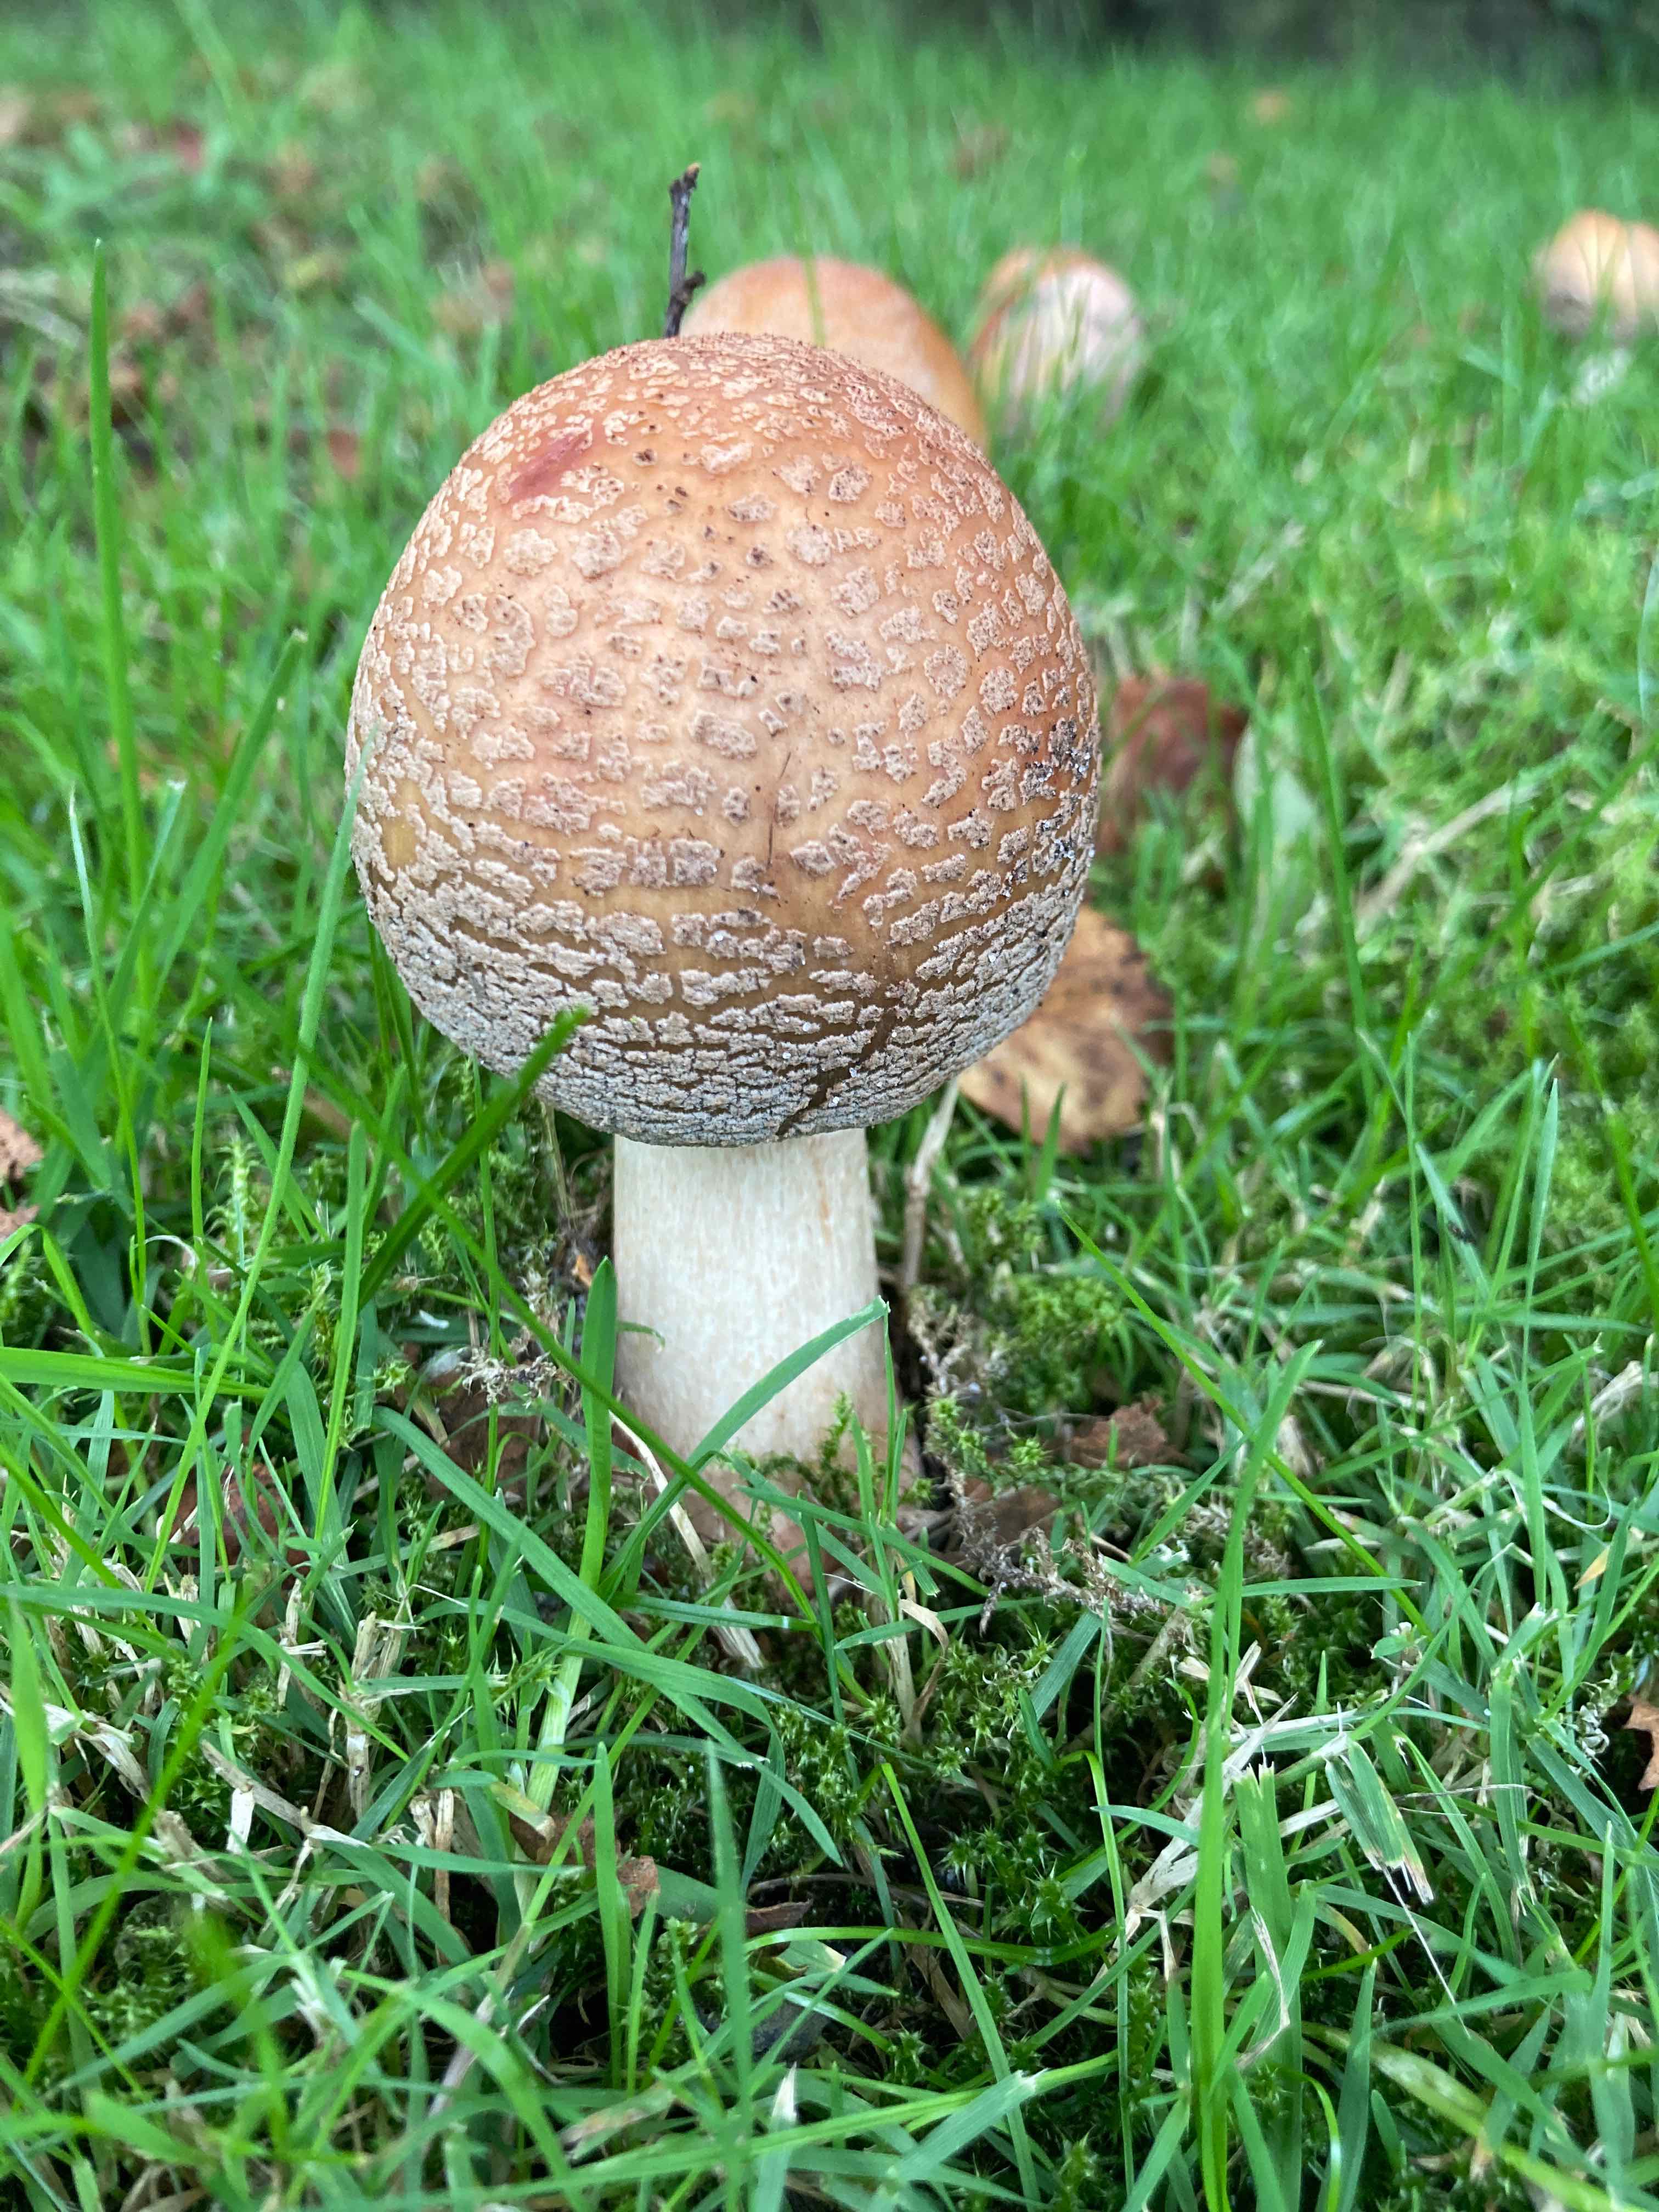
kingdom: Fungi
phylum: Basidiomycota
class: Agaricomycetes
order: Agaricales
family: Amanitaceae
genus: Amanita
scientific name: Amanita rubescens
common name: rødmende fluesvamp
